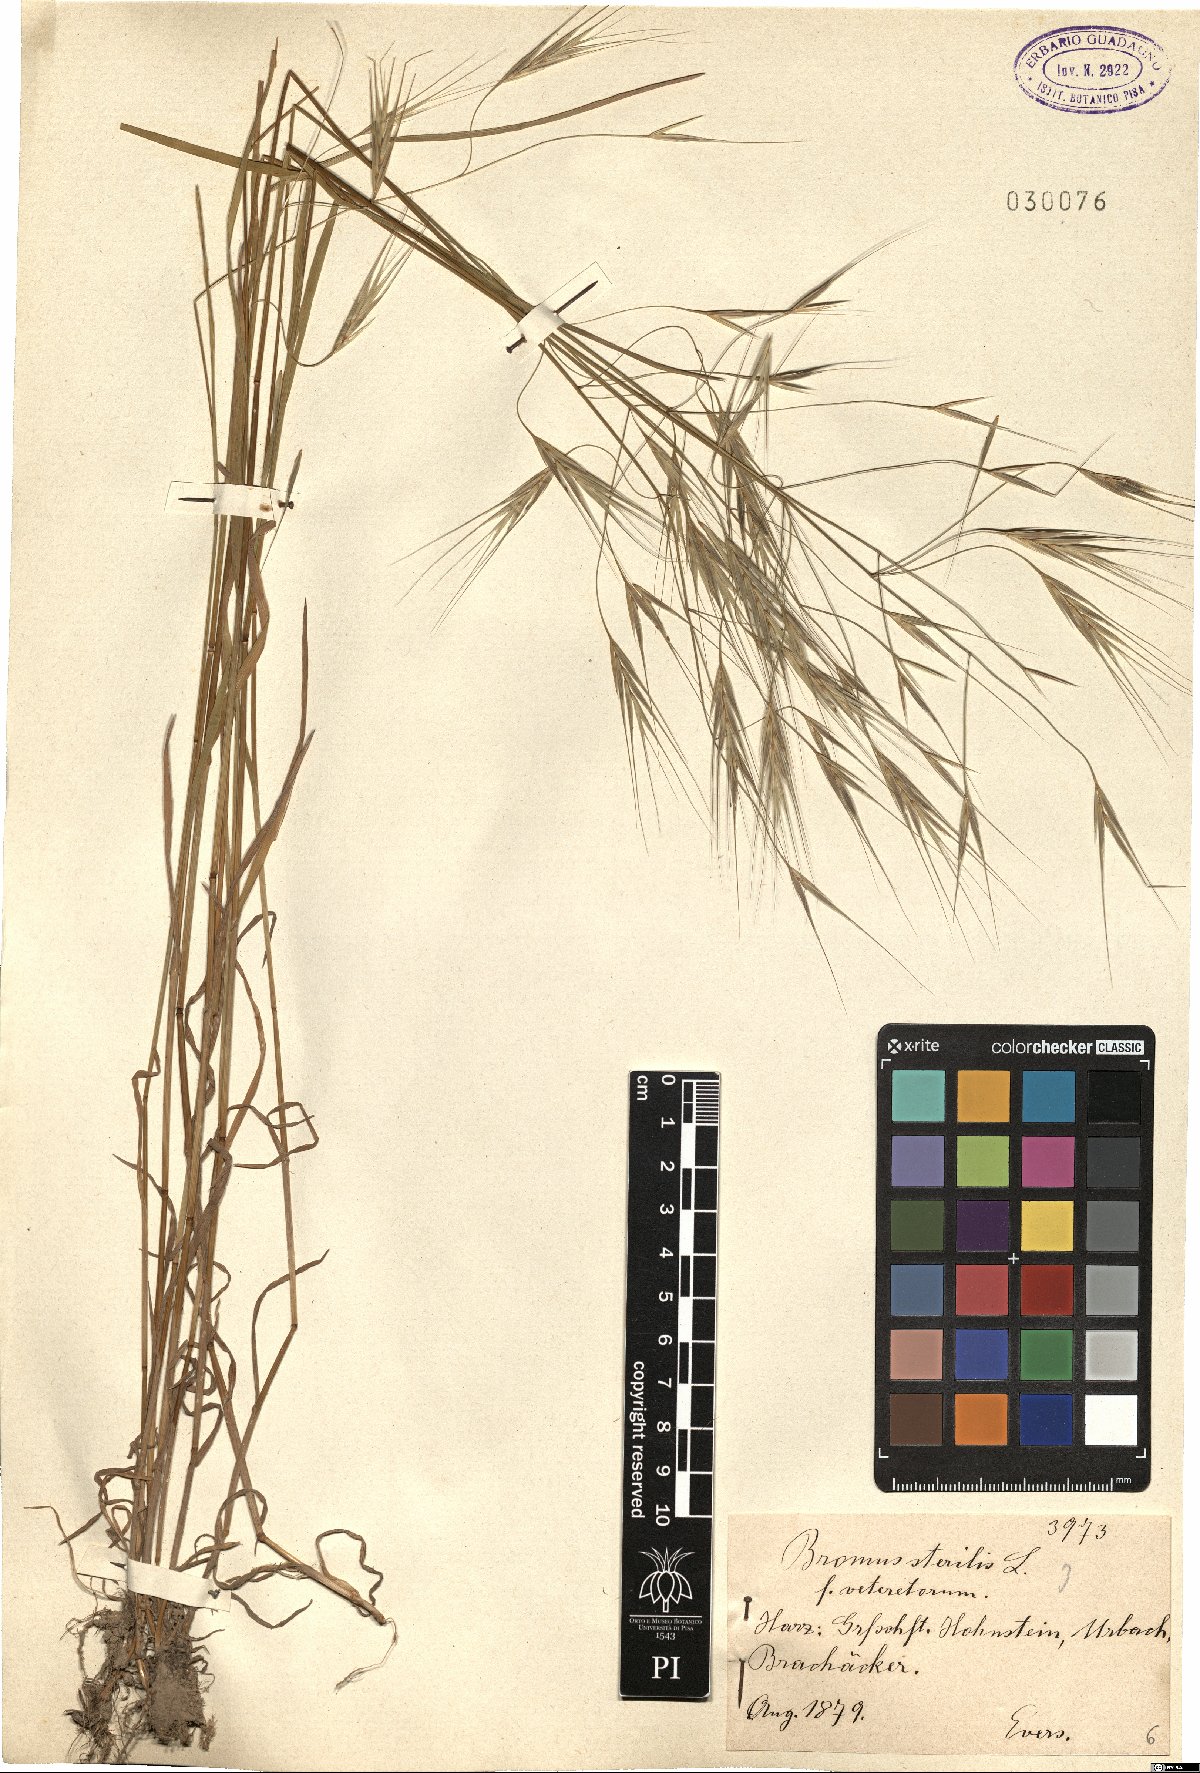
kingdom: Plantae
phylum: Tracheophyta
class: Liliopsida
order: Poales
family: Poaceae
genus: Bromus
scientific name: Bromus sterilis
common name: Poverty brome
